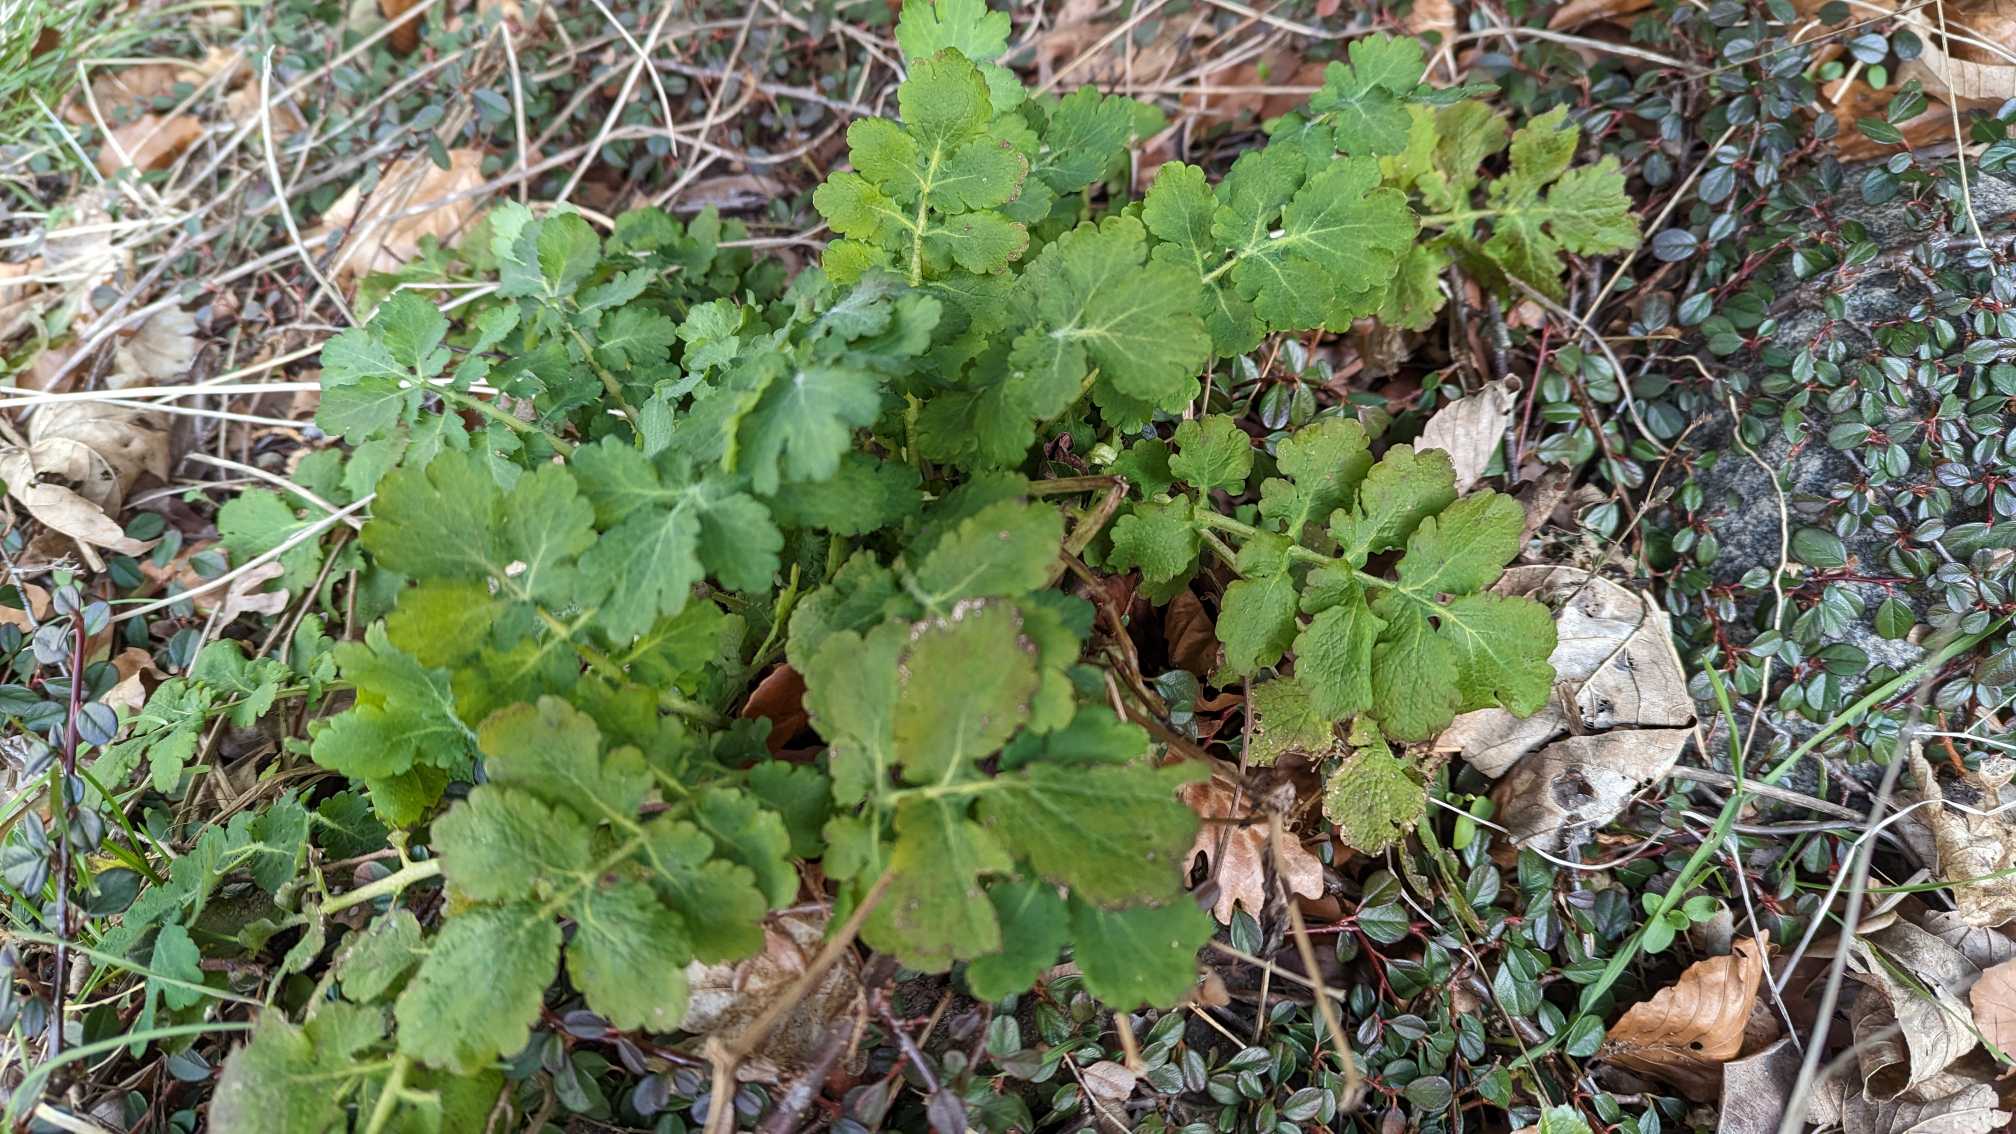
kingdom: Plantae
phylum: Tracheophyta
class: Magnoliopsida
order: Ranunculales
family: Papaveraceae
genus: Chelidonium
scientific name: Chelidonium majus
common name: Svaleurt
